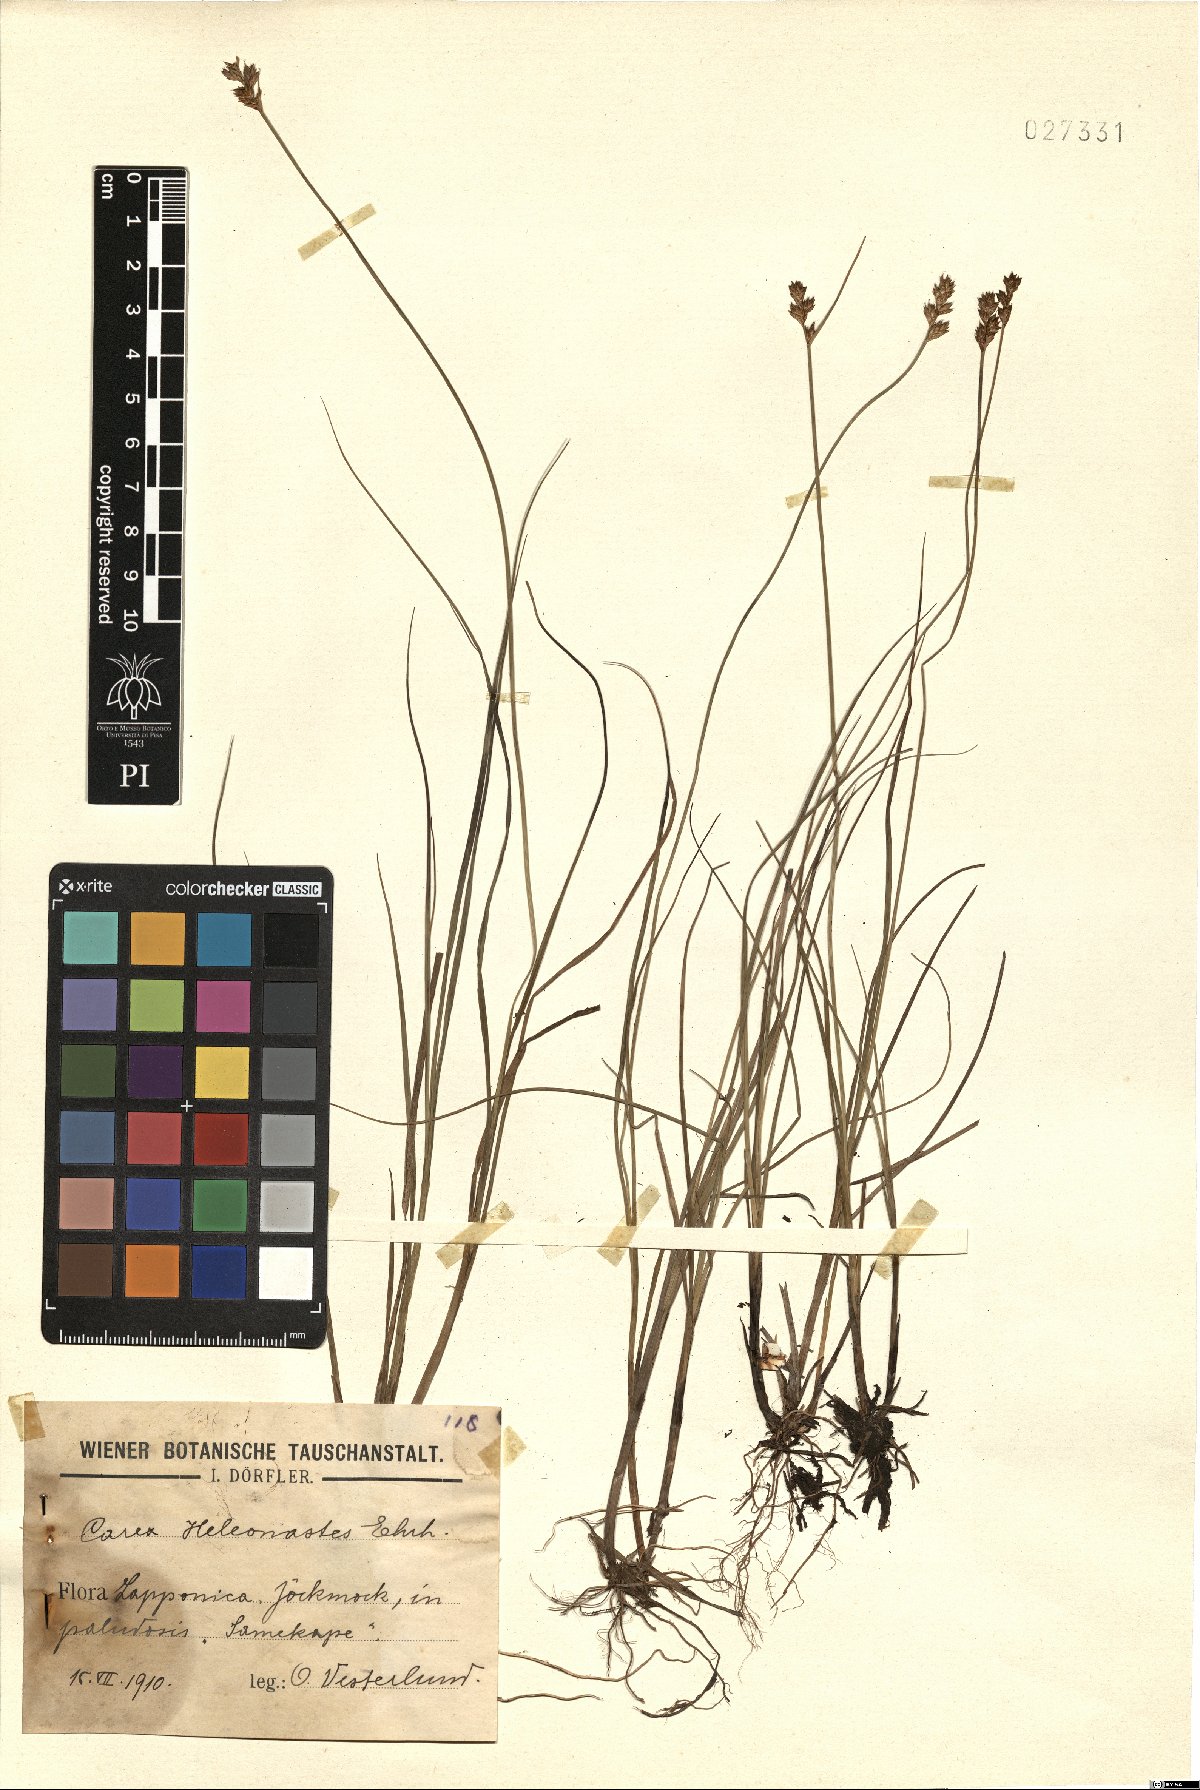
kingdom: Plantae
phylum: Tracheophyta
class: Liliopsida
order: Poales
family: Cyperaceae
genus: Carex
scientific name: Carex heleonastes
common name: Hudson bay sedge
